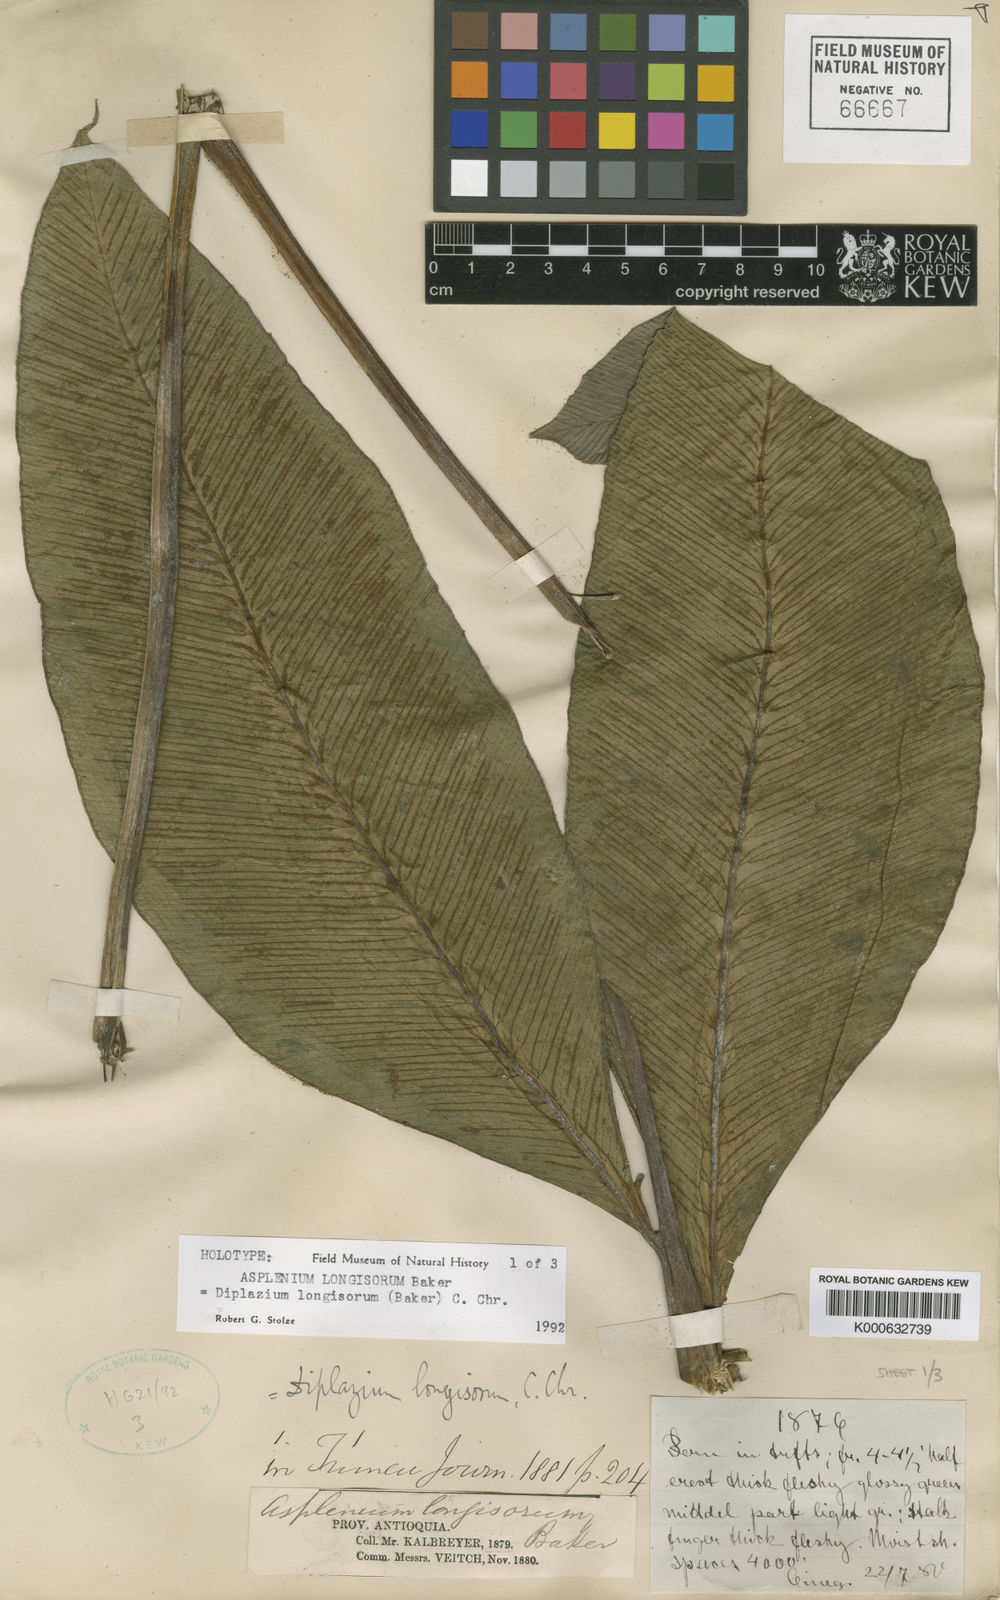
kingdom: Plantae
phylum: Tracheophyta
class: Polypodiopsida
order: Polypodiales
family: Desmophlebiaceae
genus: Desmophlebium
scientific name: Desmophlebium longisorum
